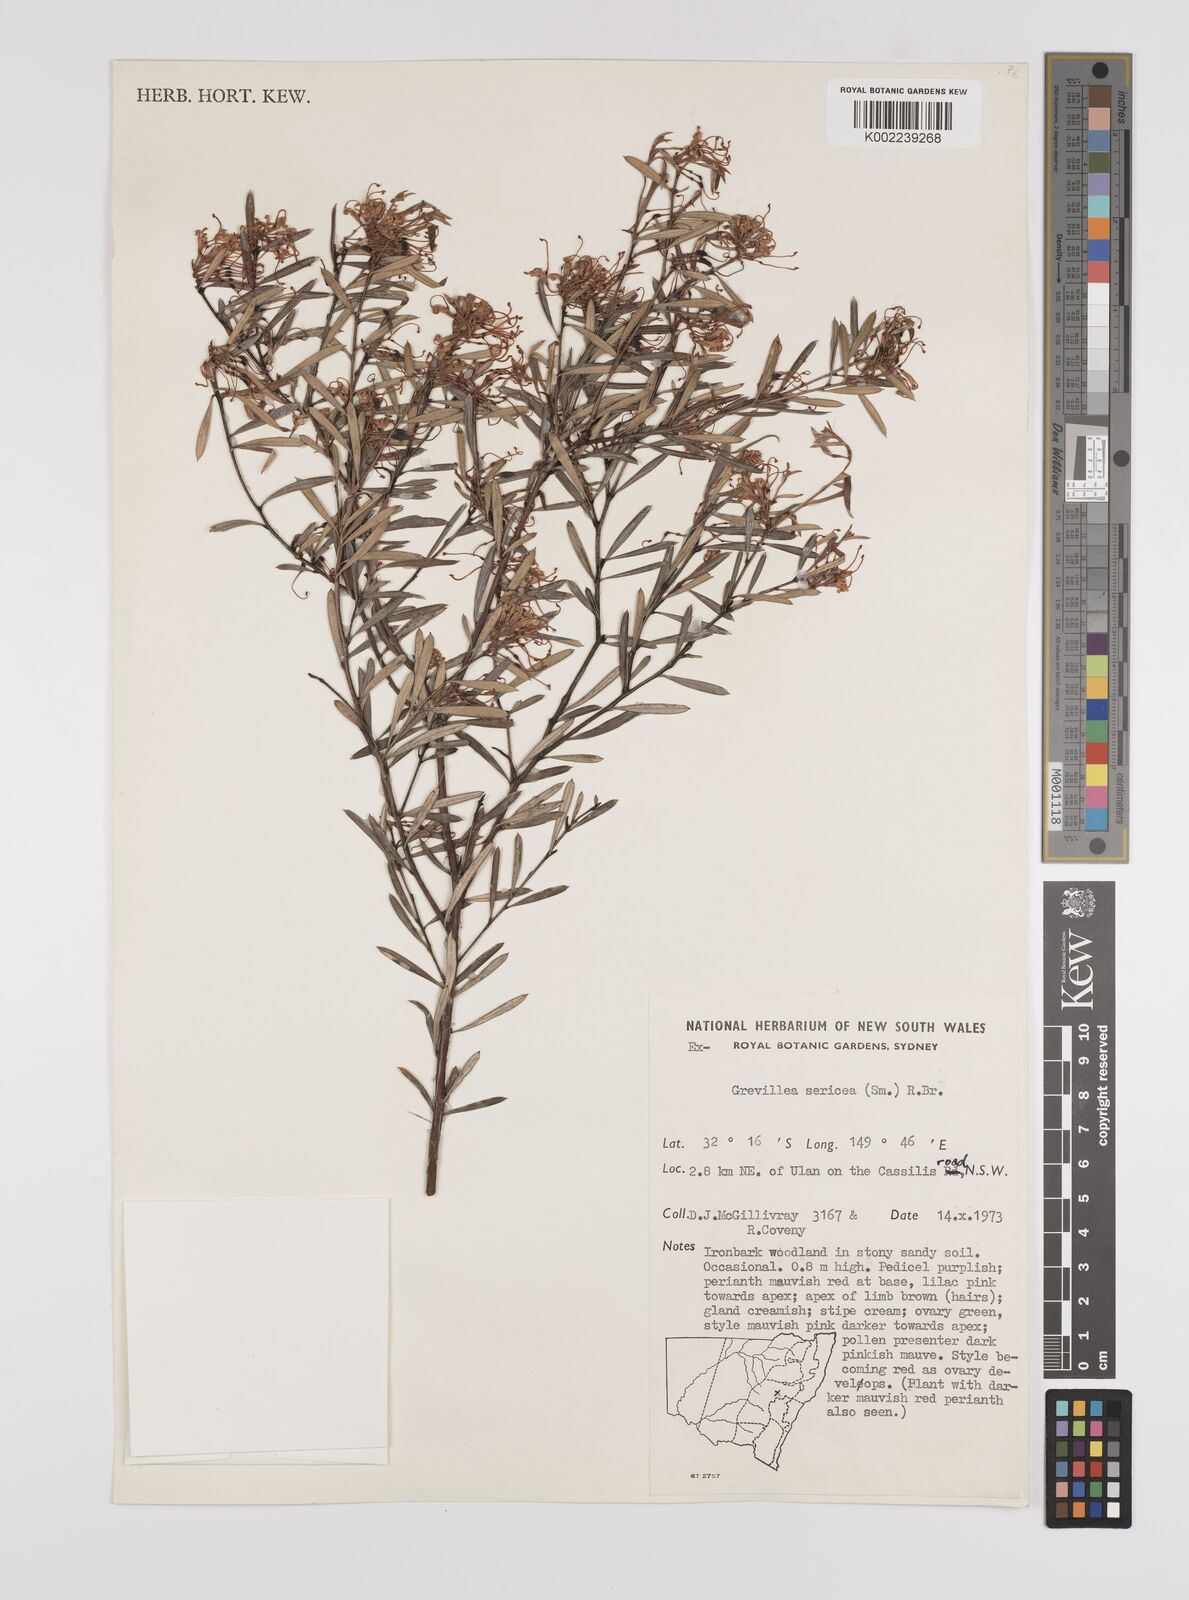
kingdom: Plantae
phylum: Tracheophyta
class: Magnoliopsida
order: Proteales
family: Proteaceae
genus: Grevillea
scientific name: Grevillea sericea
